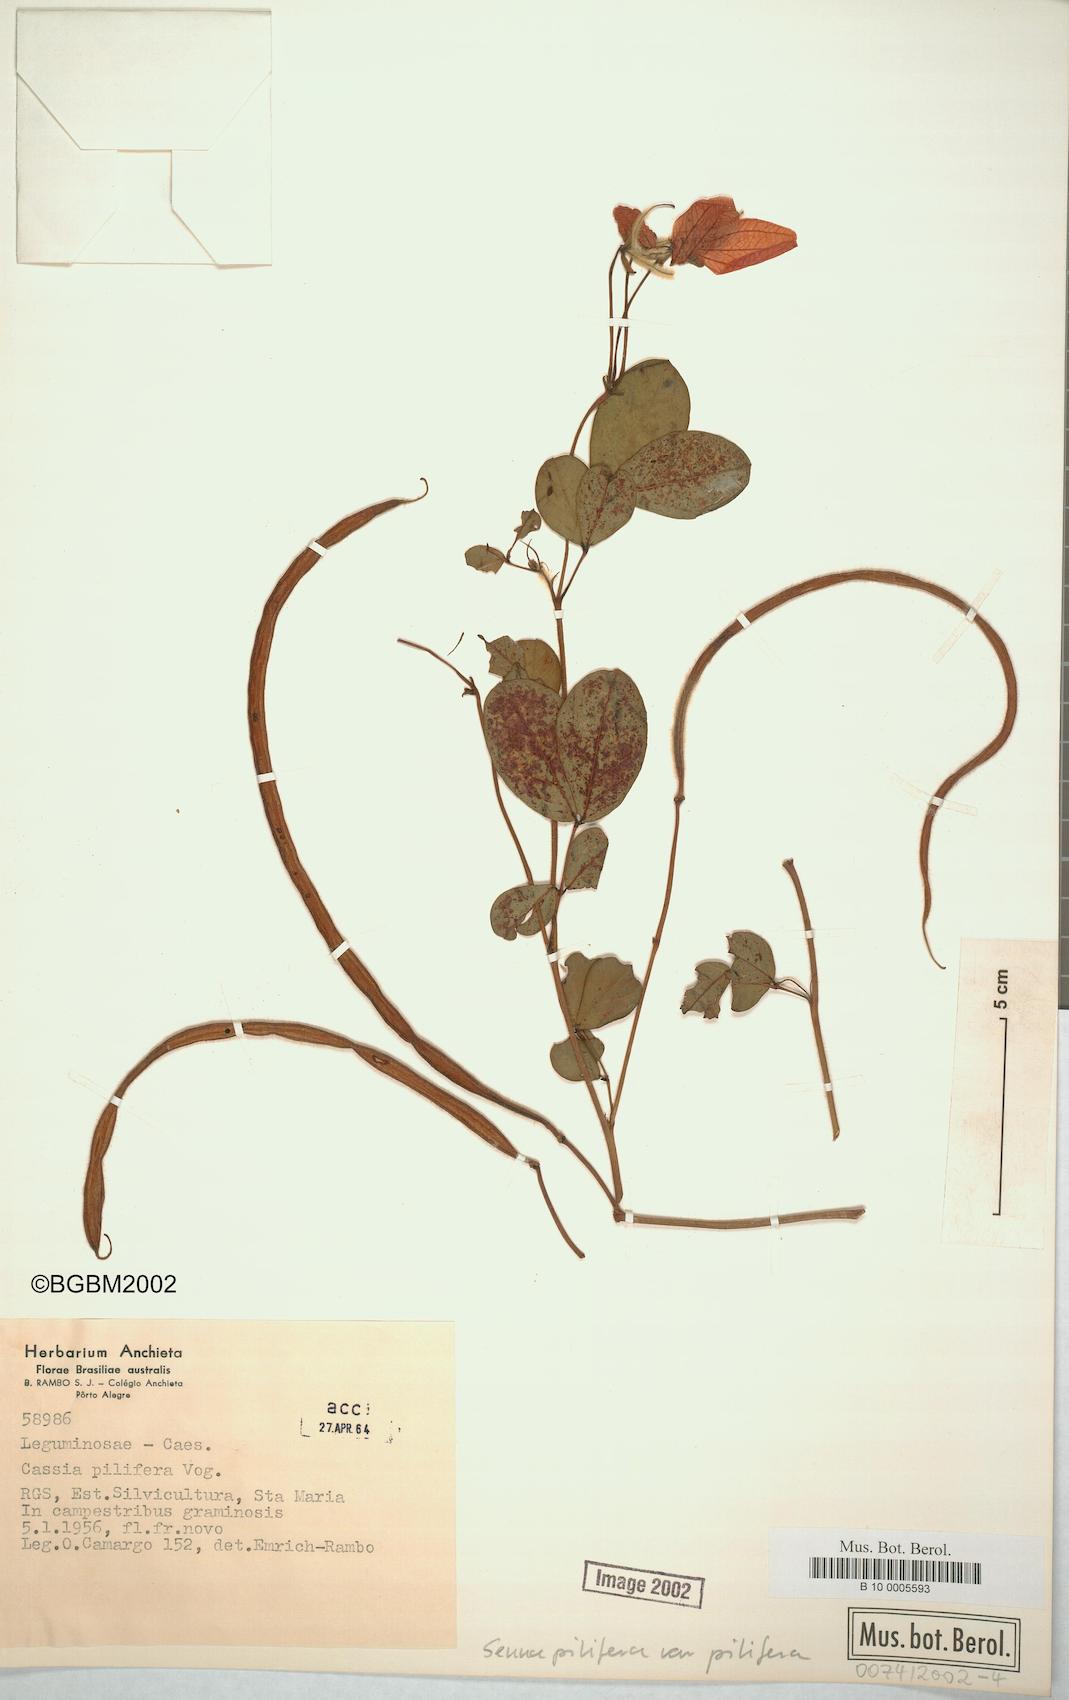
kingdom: Plantae
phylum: Tracheophyta
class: Magnoliopsida
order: Fabales
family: Fabaceae
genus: Senna
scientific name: Senna pilifera
